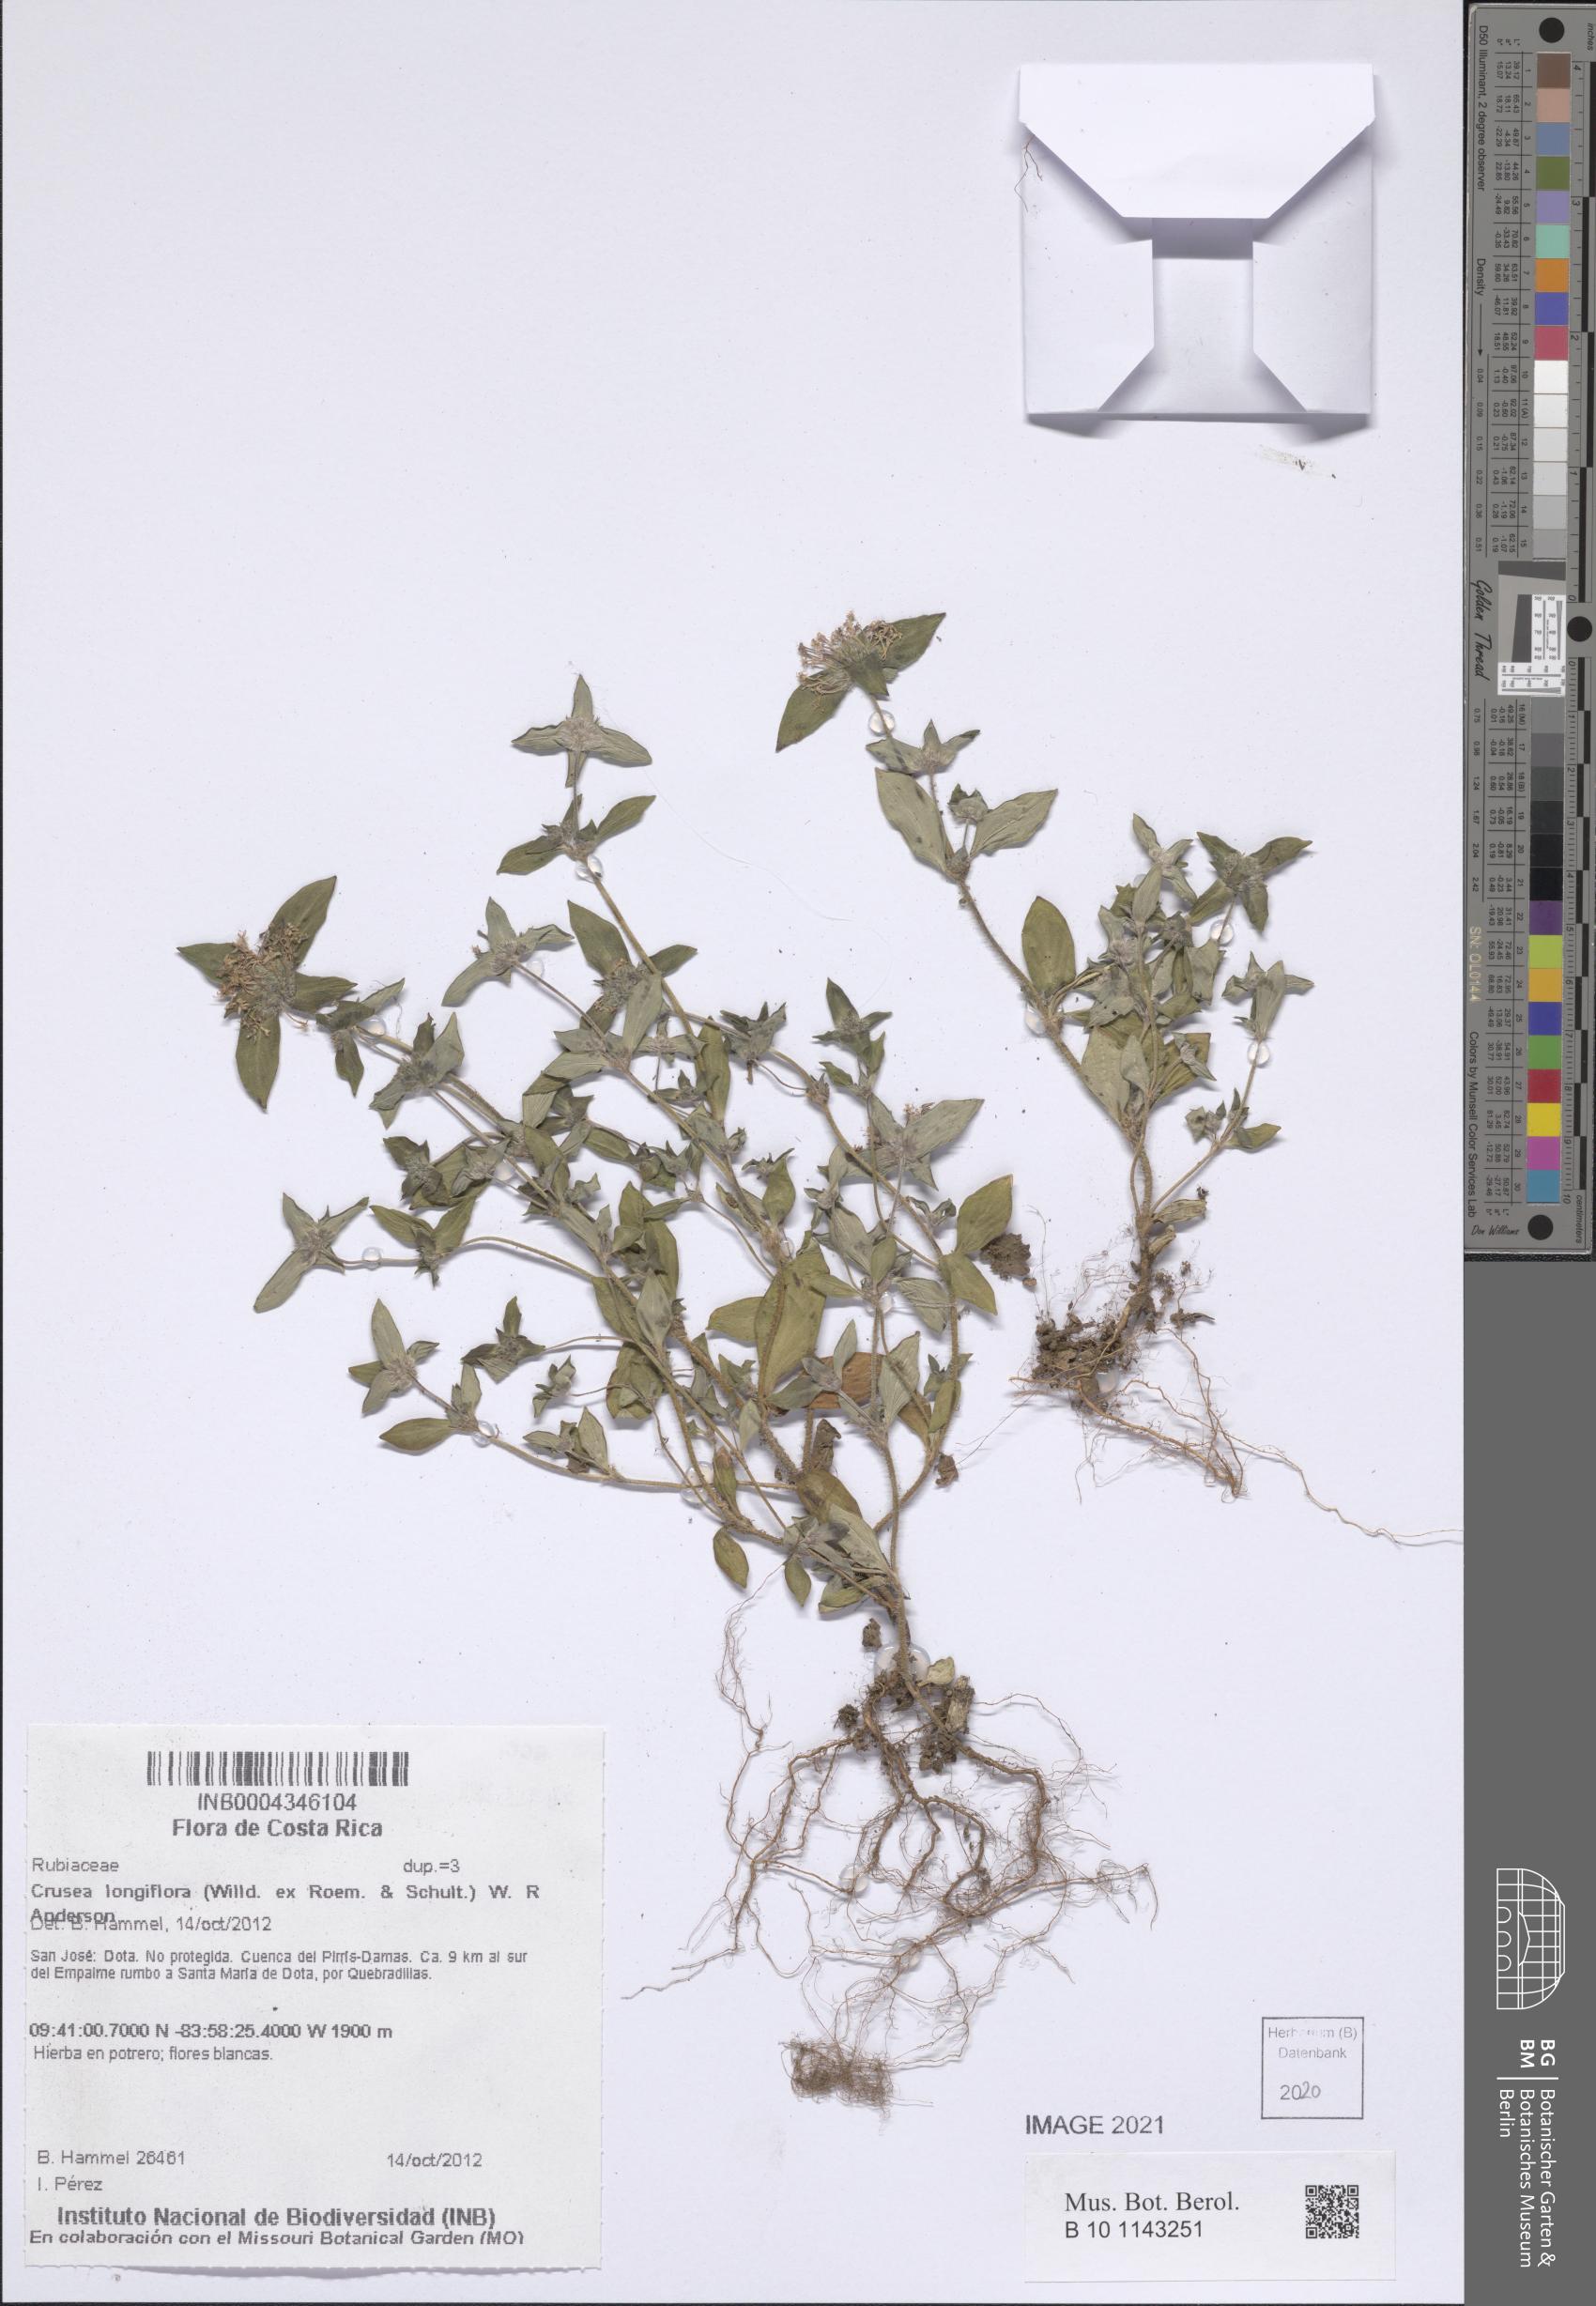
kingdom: Plantae
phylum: Tracheophyta
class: Magnoliopsida
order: Gentianales
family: Rubiaceae
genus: Crusea
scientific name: Crusea longiflora
